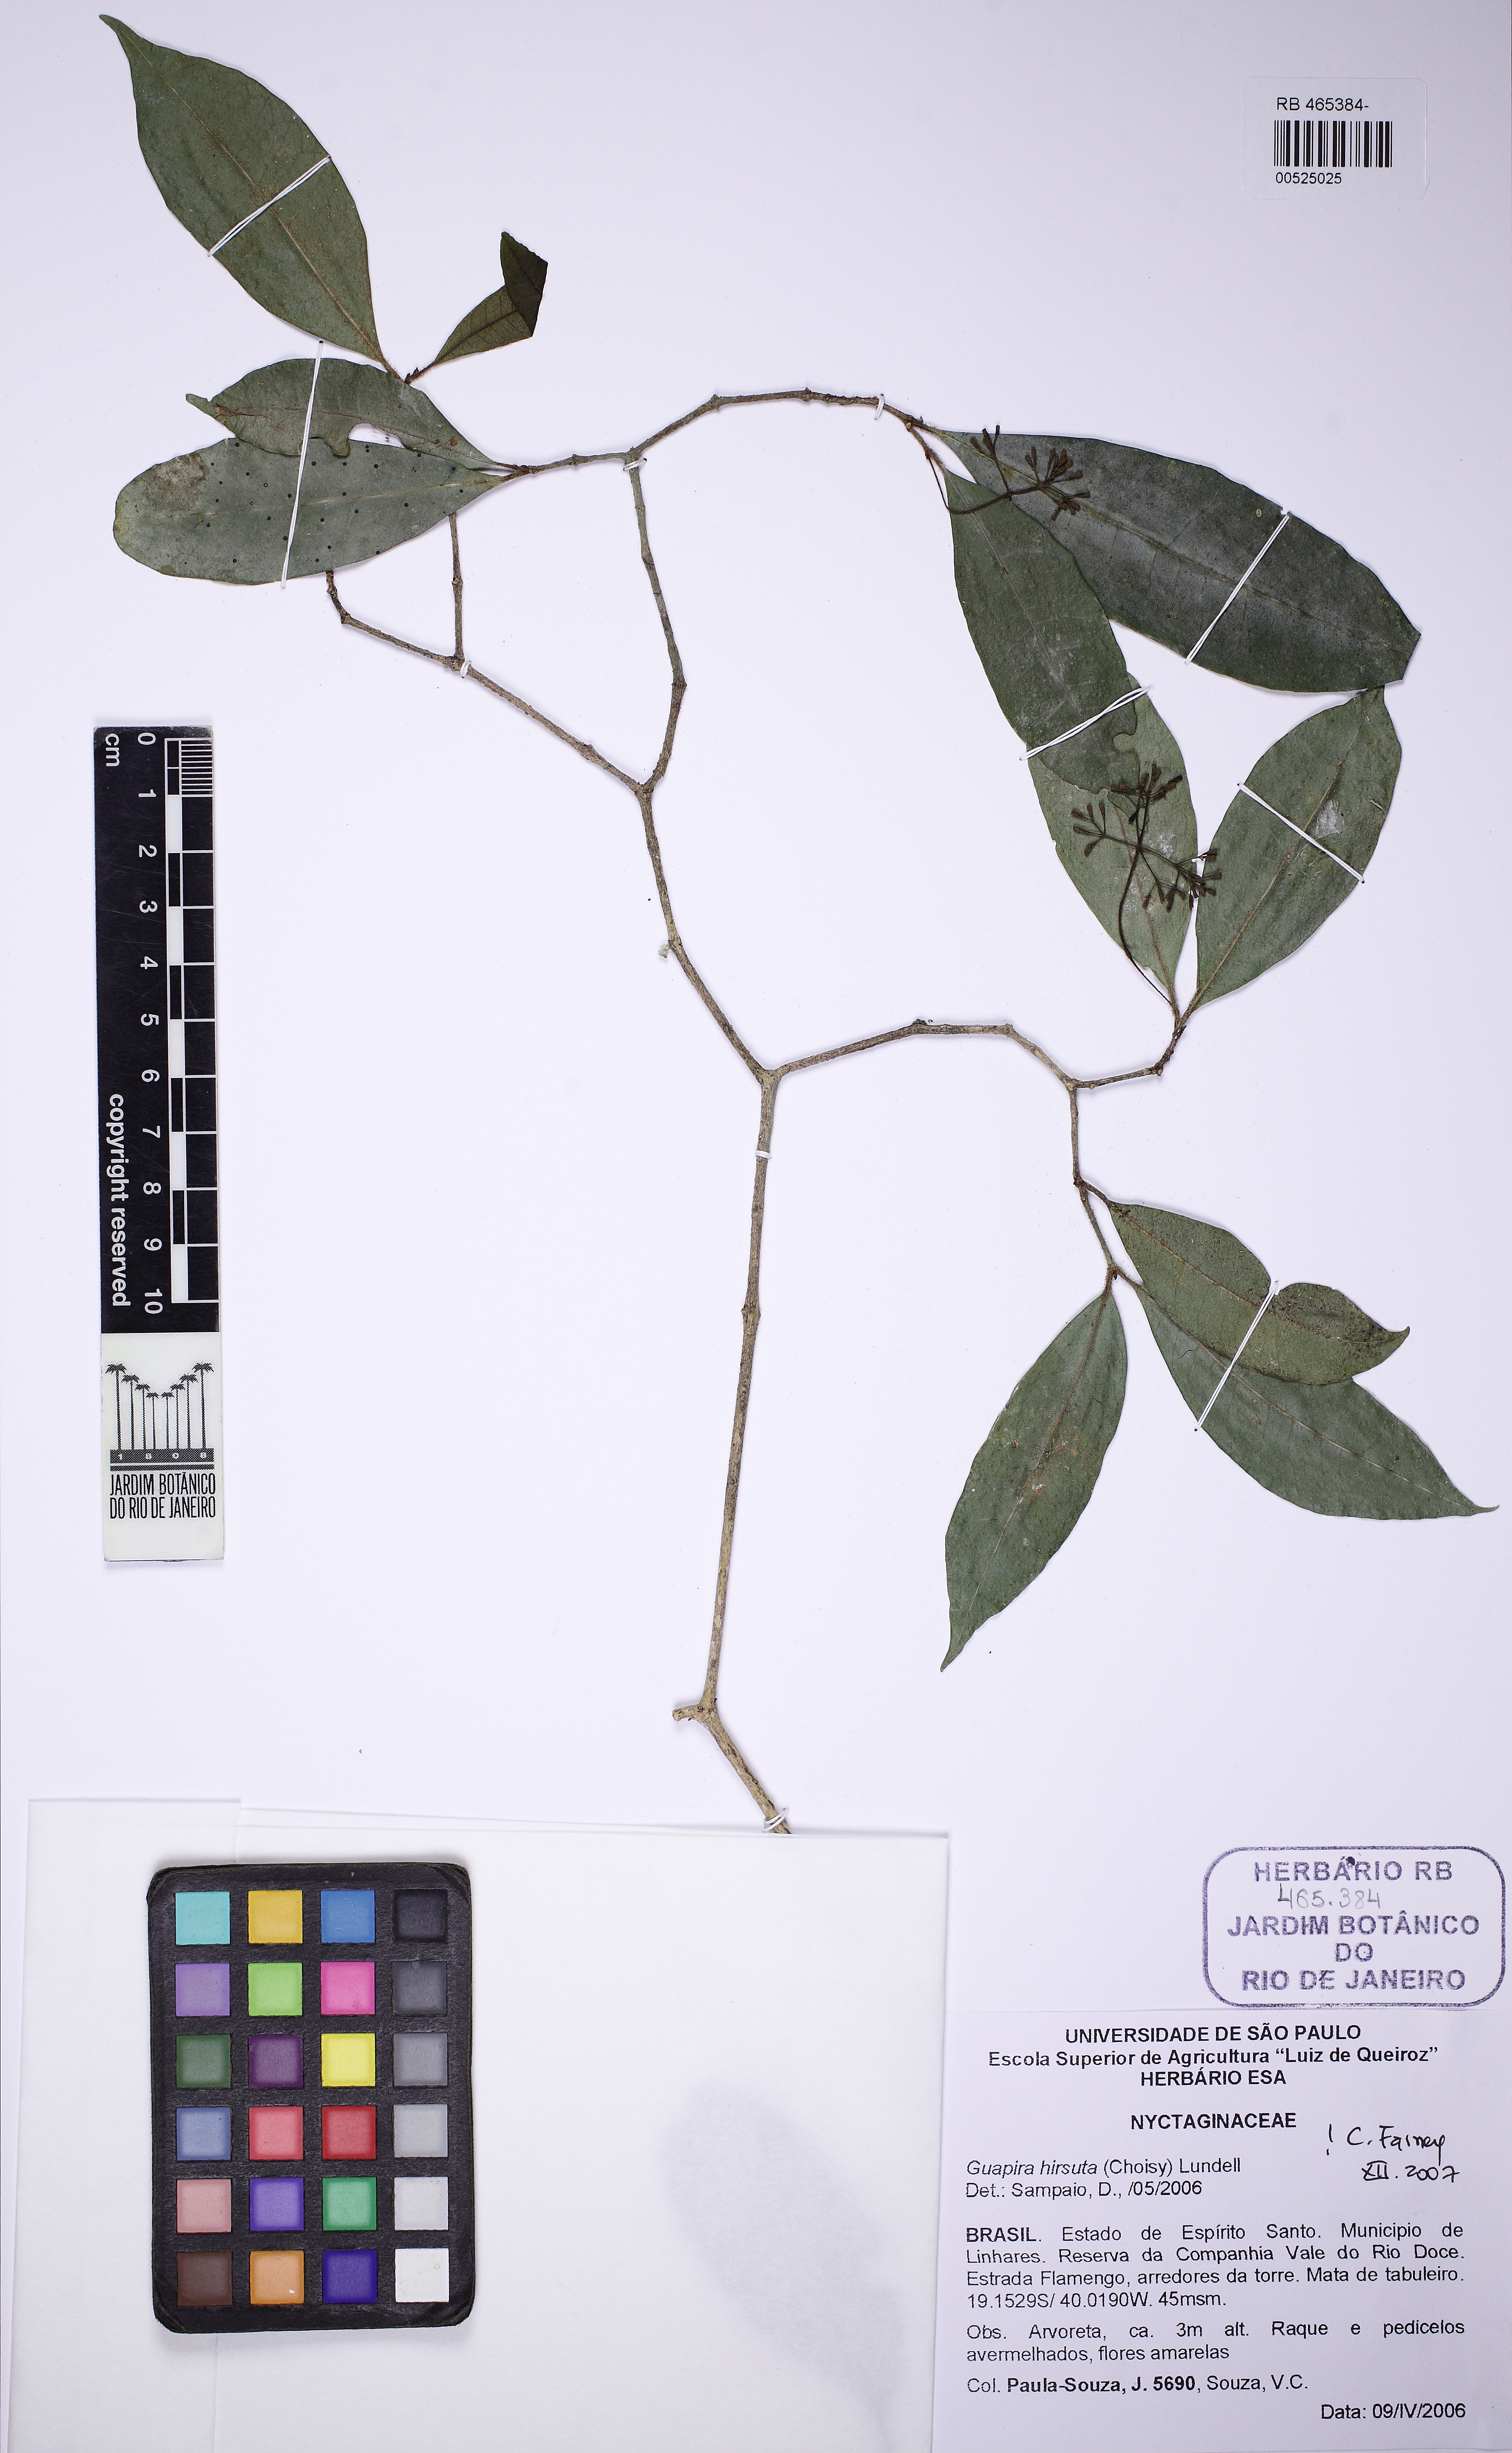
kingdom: Plantae
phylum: Tracheophyta
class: Magnoliopsida
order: Caryophyllales
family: Nyctaginaceae
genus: Guapira
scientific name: Guapira hirsuta
